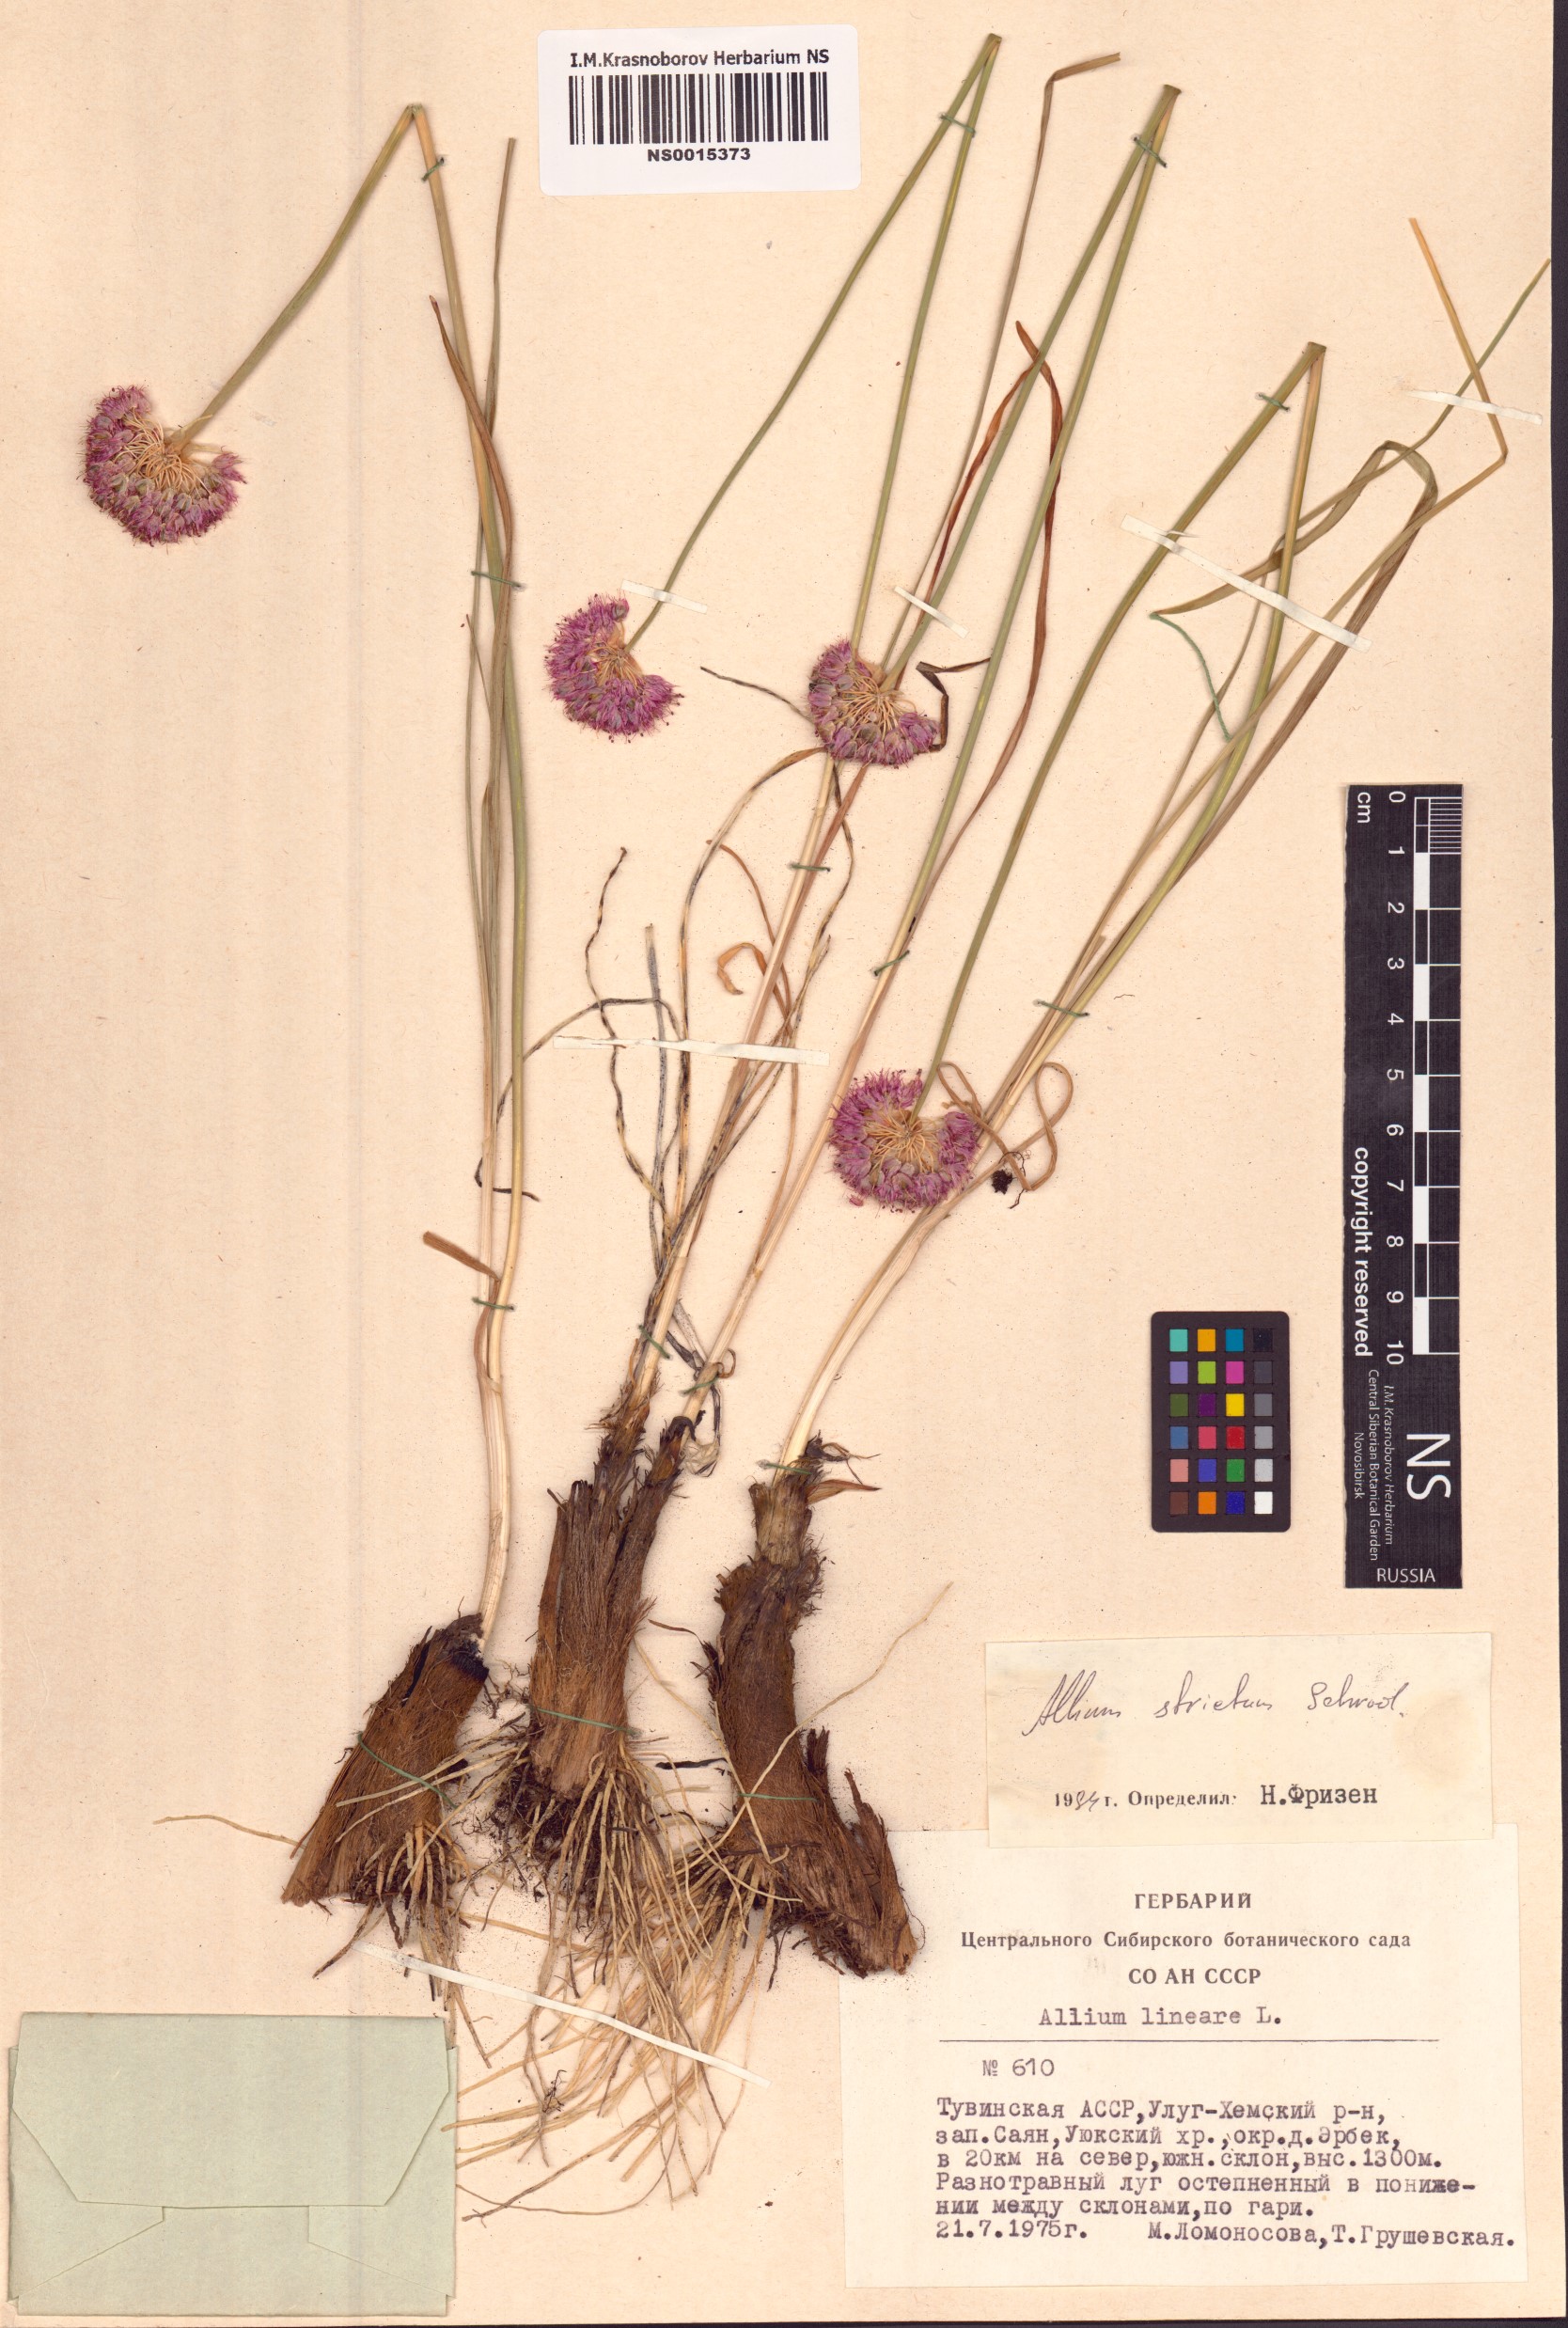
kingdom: Plantae
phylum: Tracheophyta
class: Liliopsida
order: Asparagales
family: Amaryllidaceae
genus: Allium
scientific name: Allium strictum
